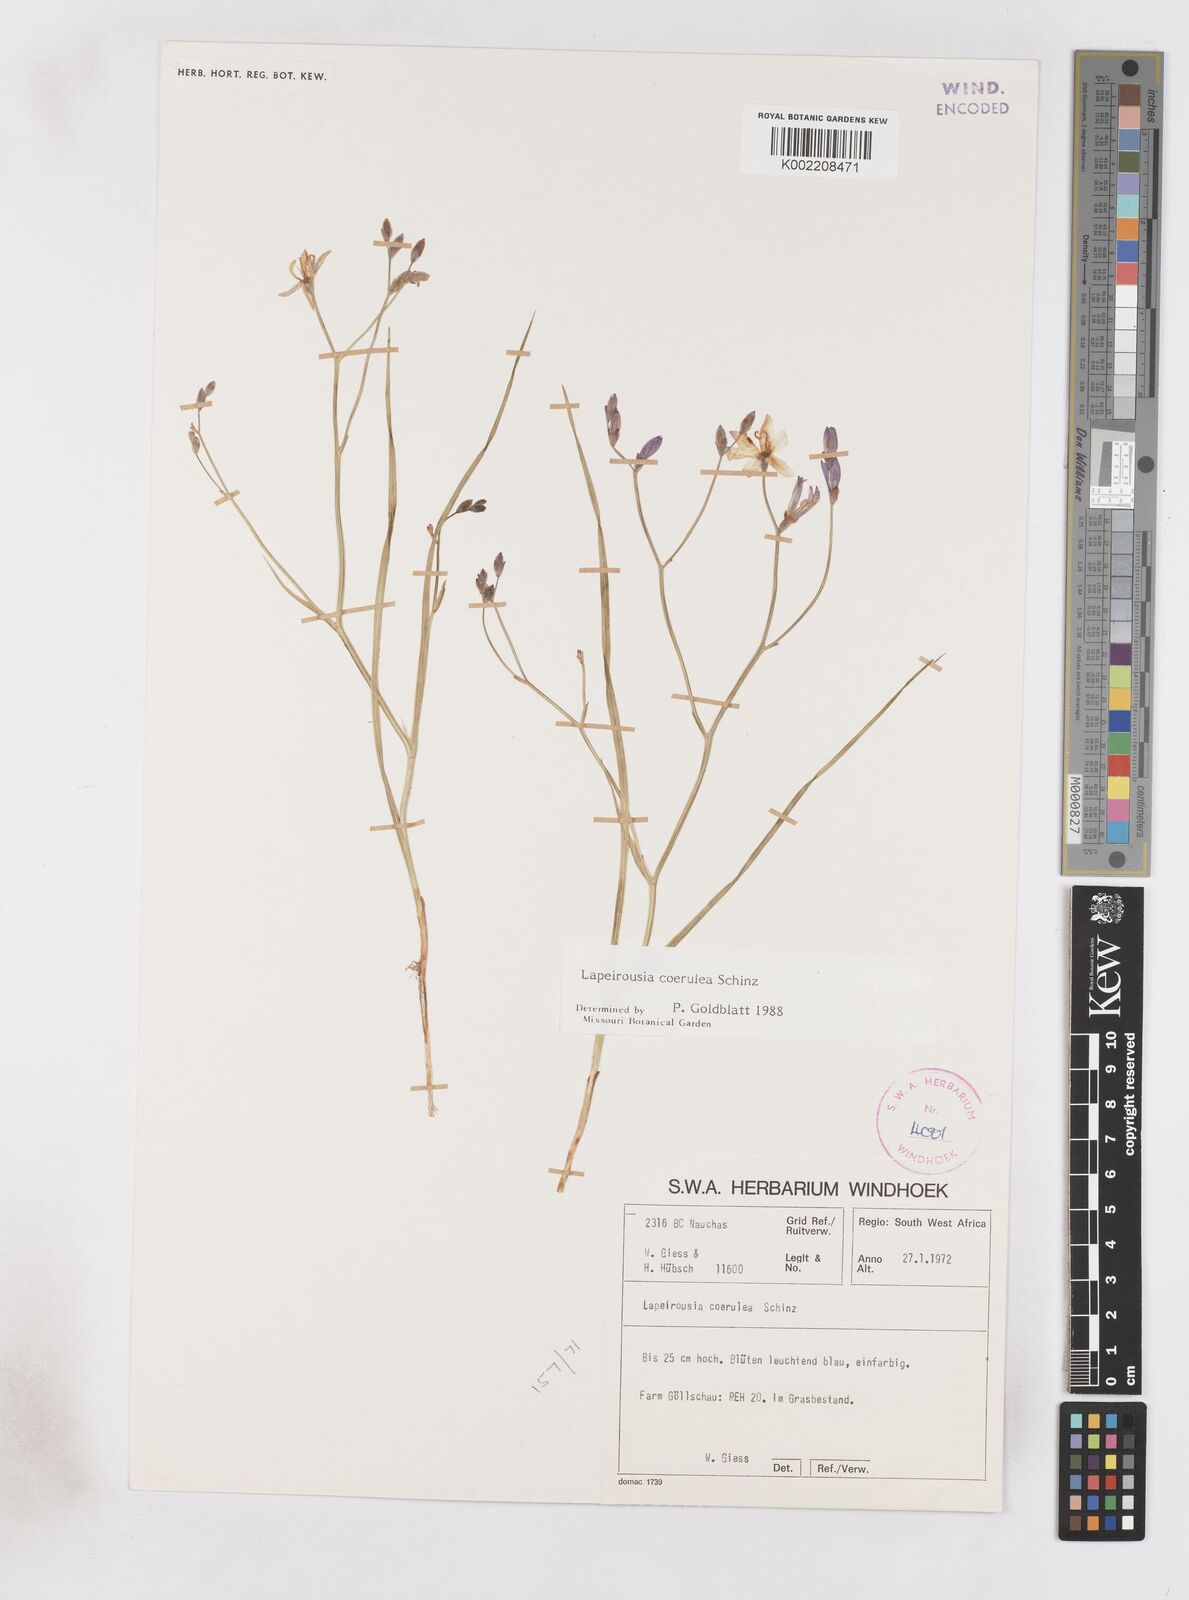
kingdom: Plantae
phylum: Tracheophyta
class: Liliopsida
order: Asparagales
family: Iridaceae
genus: Afrosolen
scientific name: Afrosolen coeruleus
